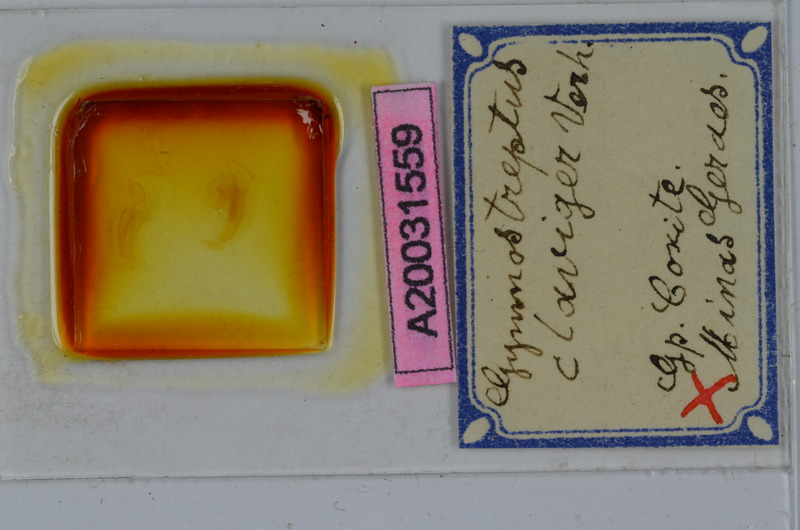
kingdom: Animalia
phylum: Arthropoda
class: Diplopoda
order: Spirostreptida
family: Spirostreptidae
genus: Gymnostreptus
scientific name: Gymnostreptus claviger
